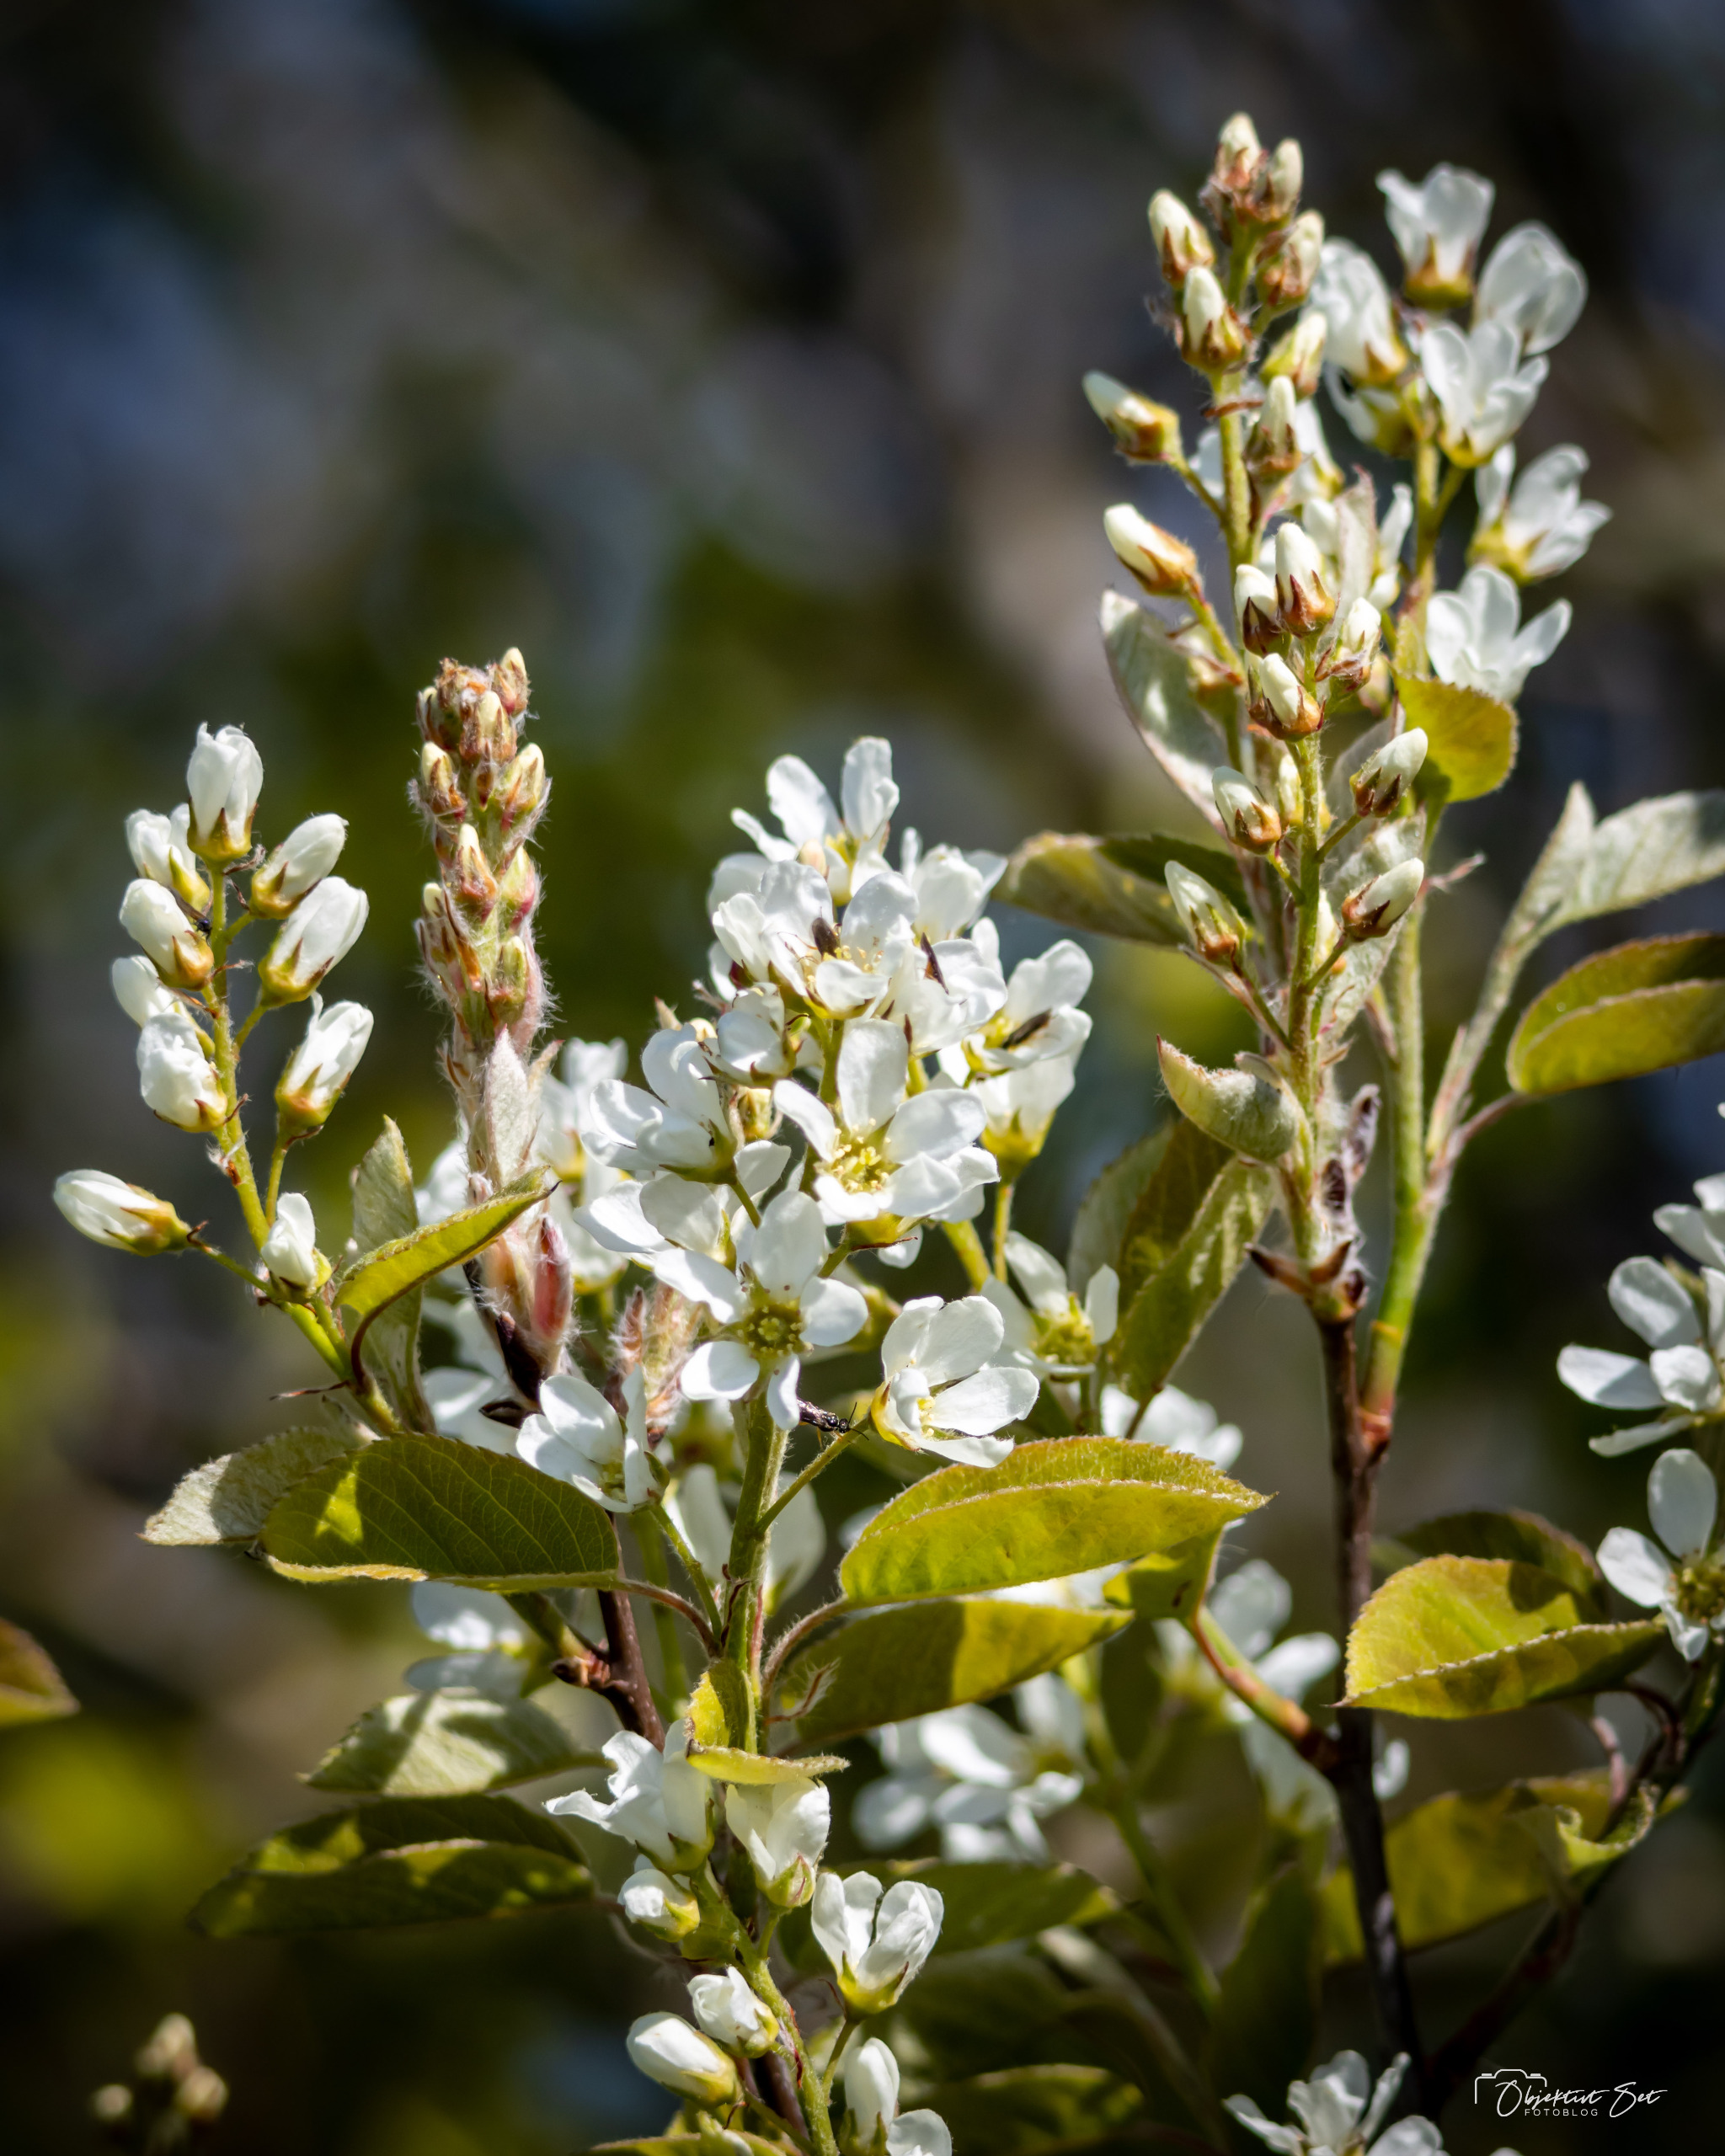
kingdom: Plantae
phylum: Tracheophyta
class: Magnoliopsida
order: Rosales
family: Rosaceae
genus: Amelanchier
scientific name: Amelanchier humilis
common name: Aks-bærmispel
